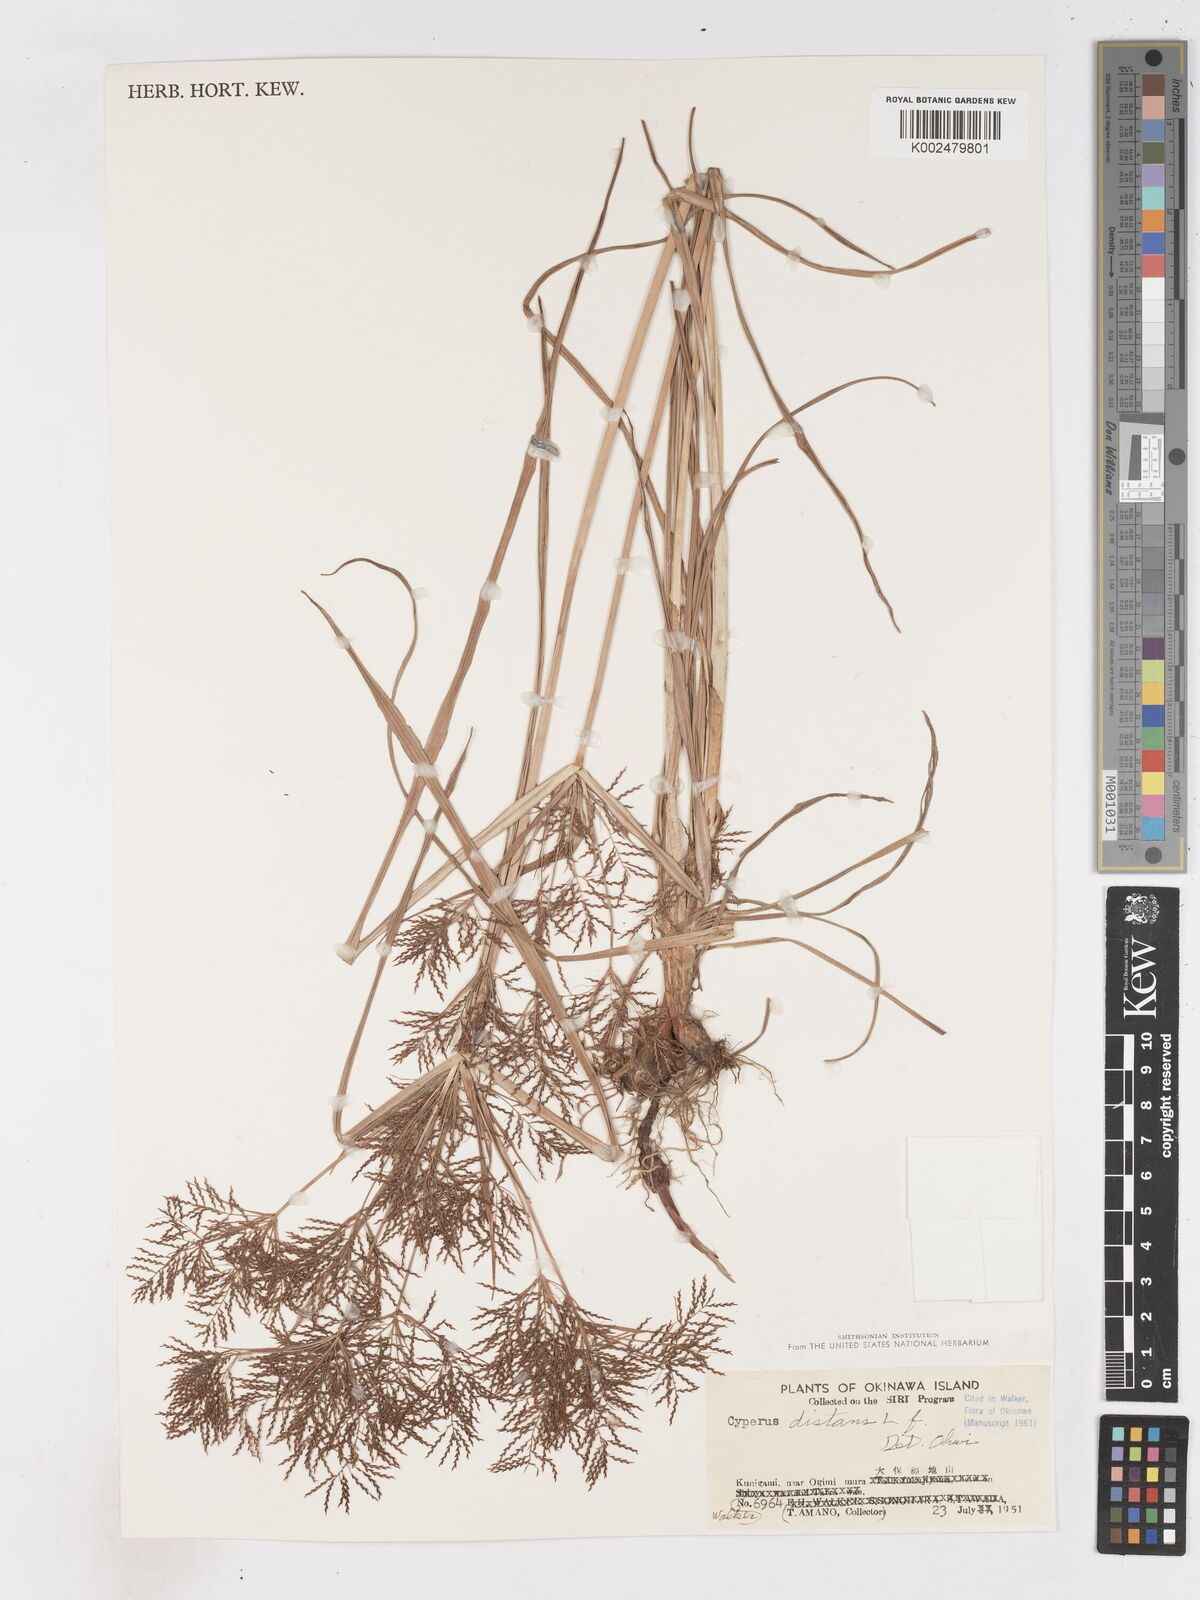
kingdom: Plantae
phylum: Tracheophyta
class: Liliopsida
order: Poales
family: Cyperaceae
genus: Cyperus
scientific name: Cyperus distans
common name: Slender cyperus
